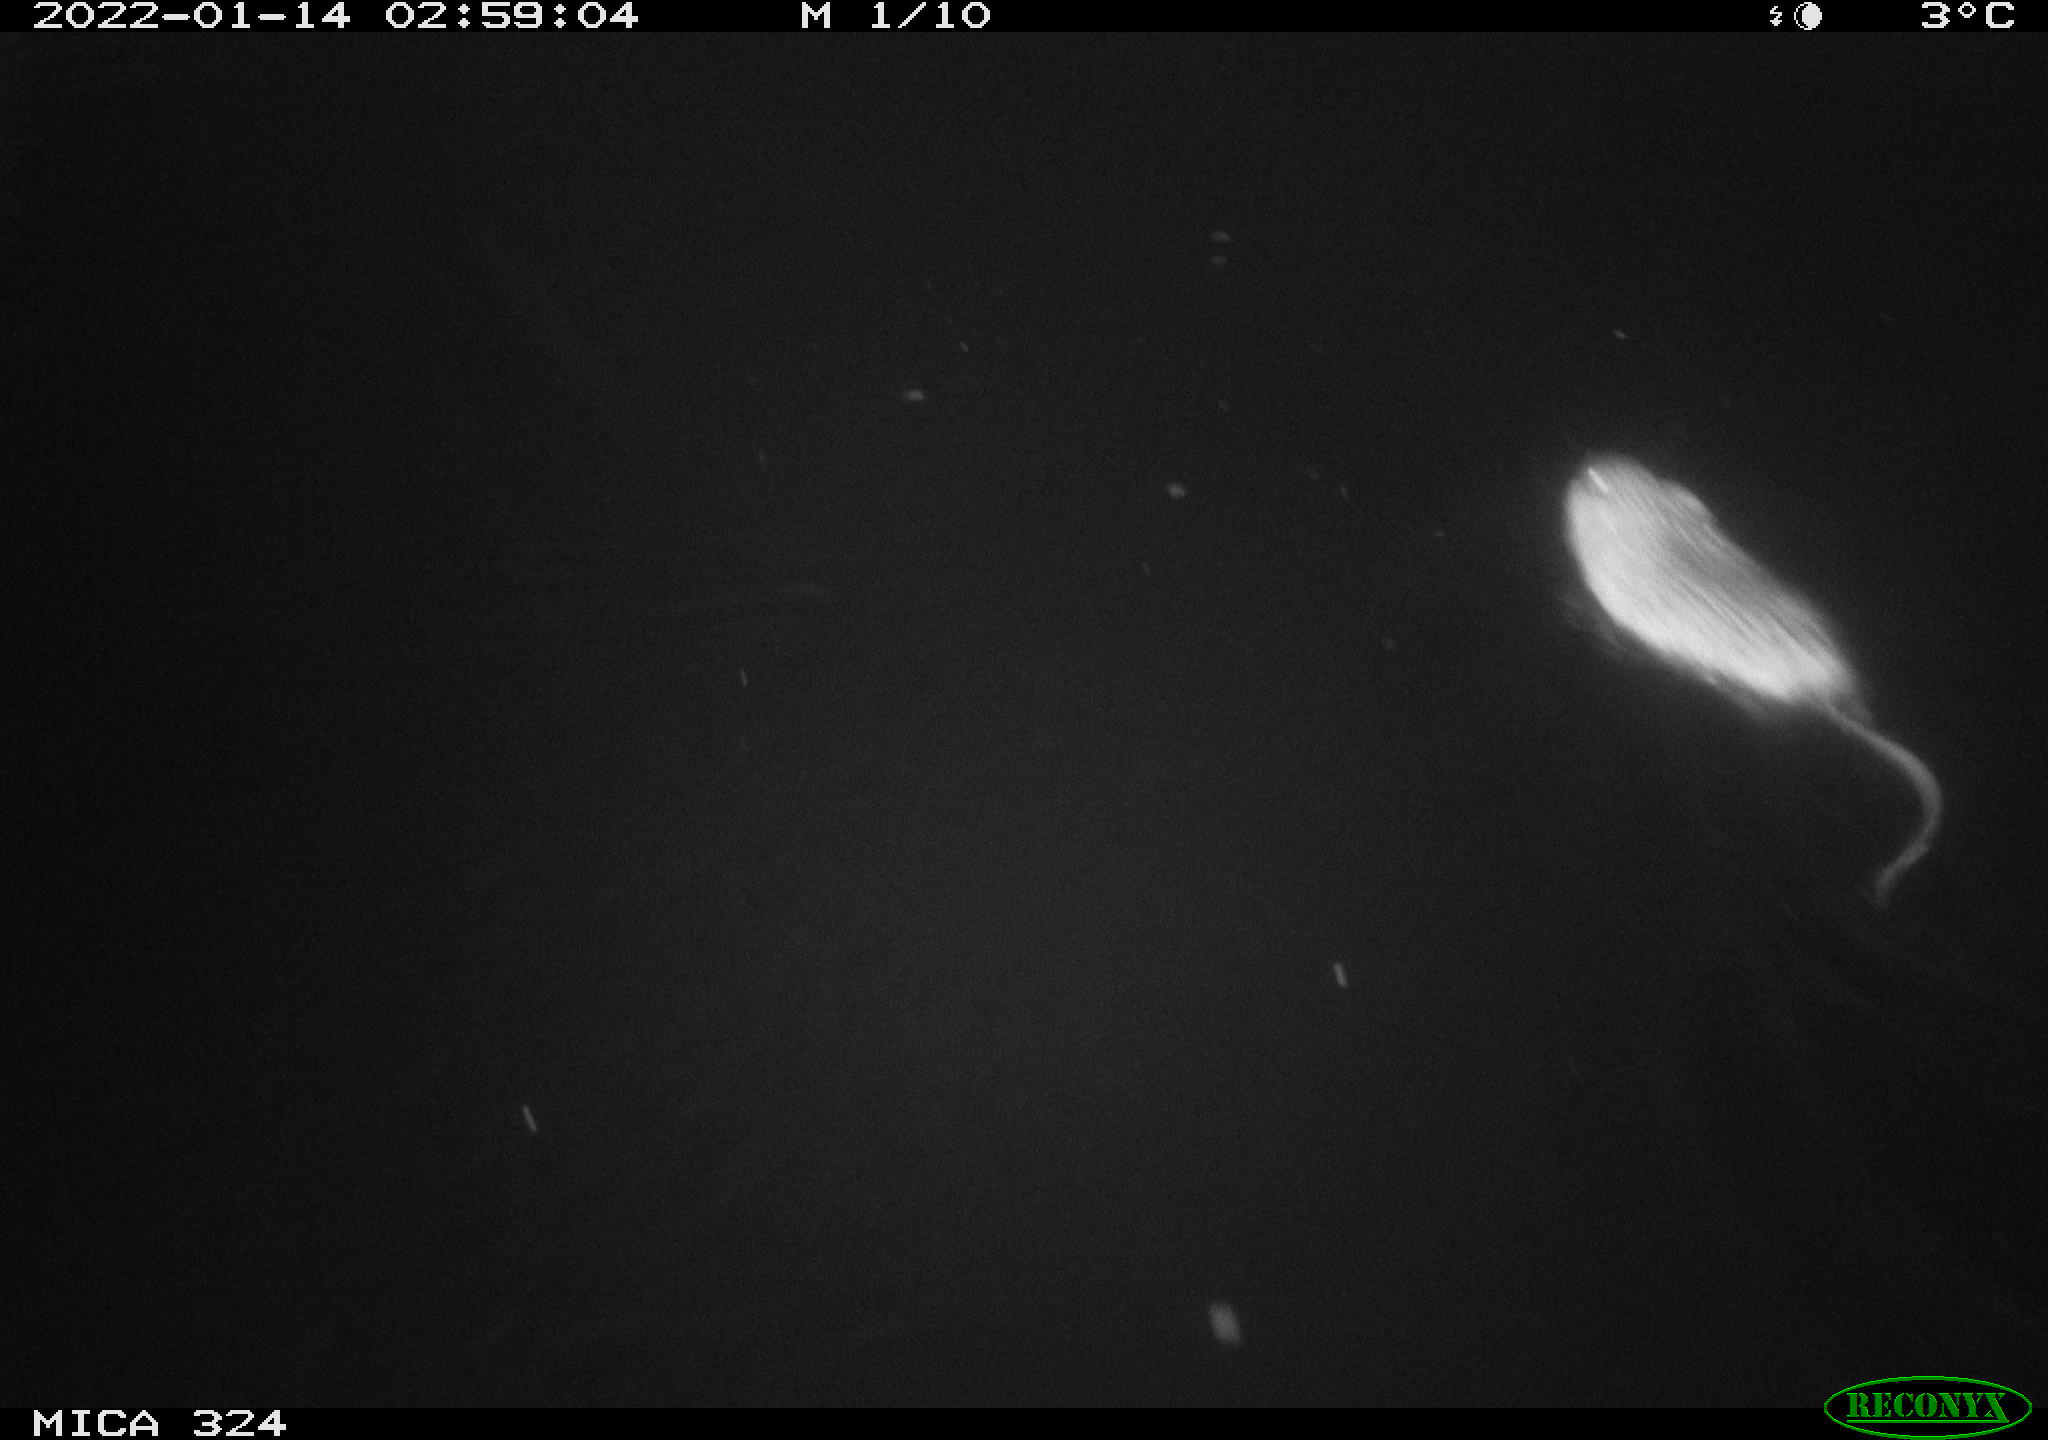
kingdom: Animalia
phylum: Chordata
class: Mammalia
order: Rodentia
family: Cricetidae
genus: Ondatra
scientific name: Ondatra zibethicus
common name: Muskrat
